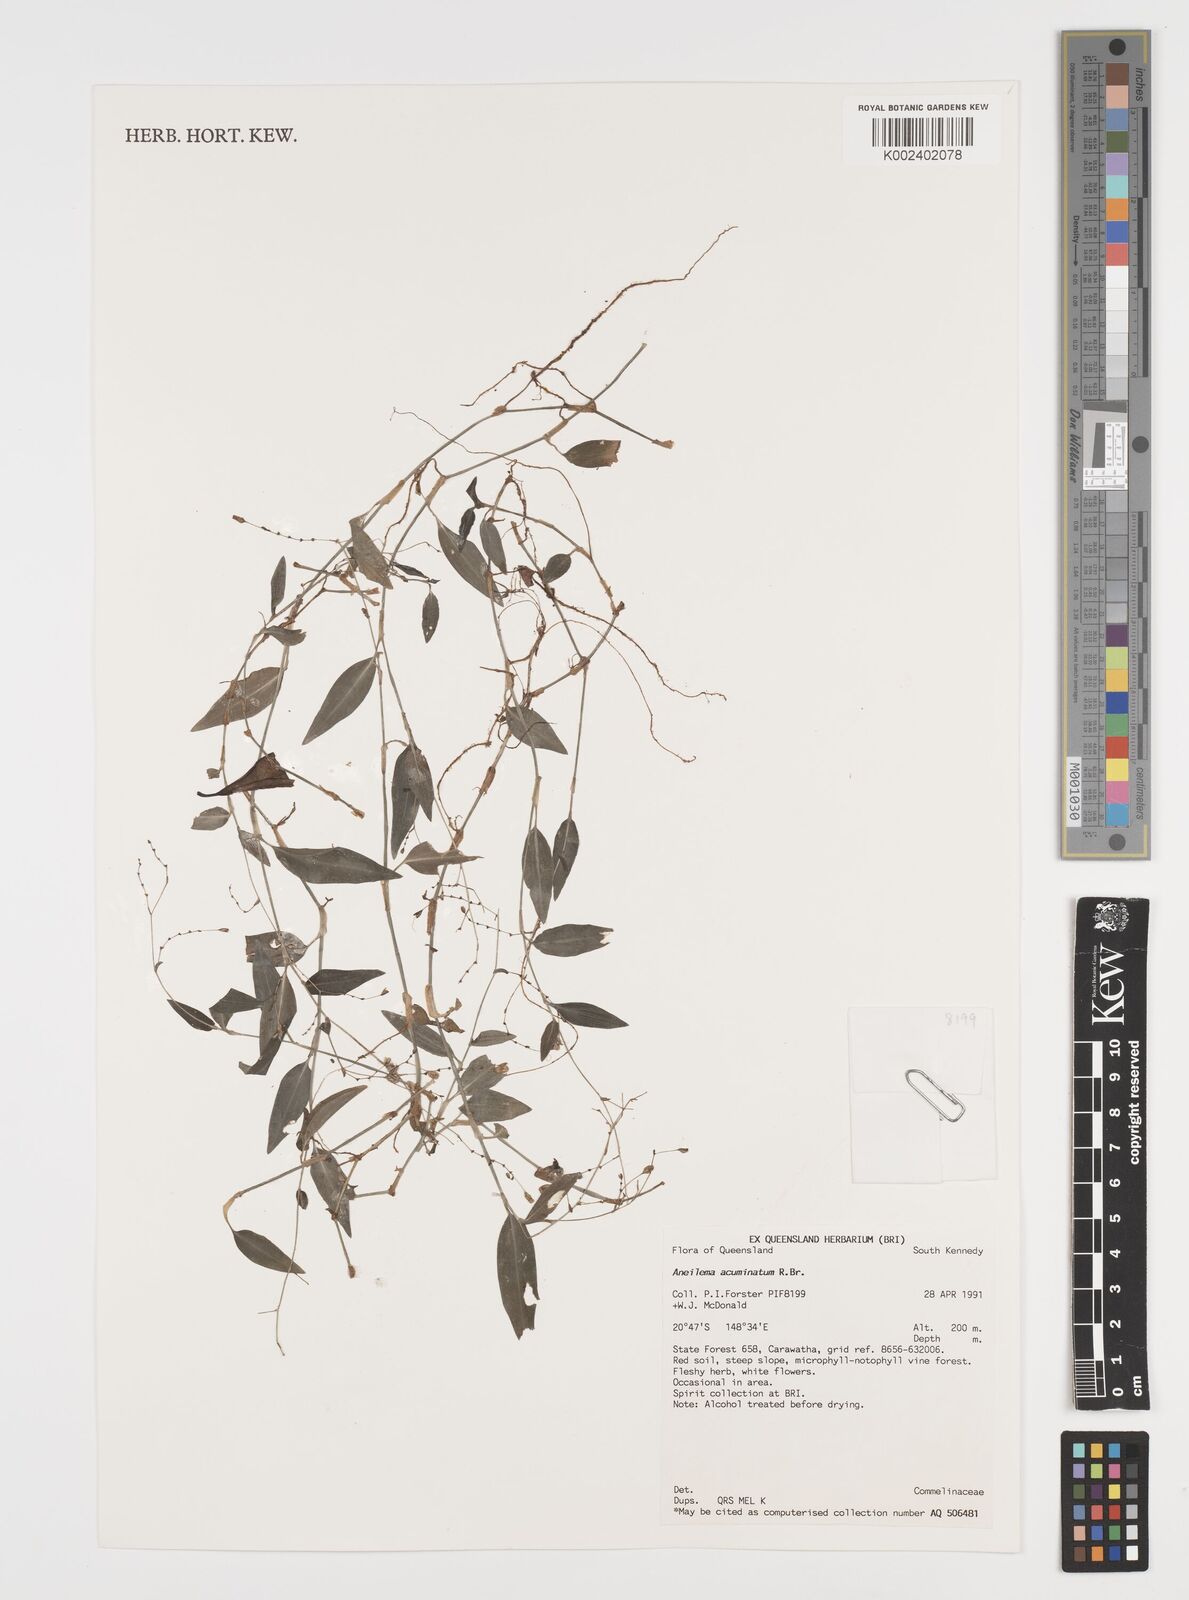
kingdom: Plantae
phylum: Tracheophyta
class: Liliopsida
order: Commelinales
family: Commelinaceae
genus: Aneilema
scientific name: Aneilema acuminatum
